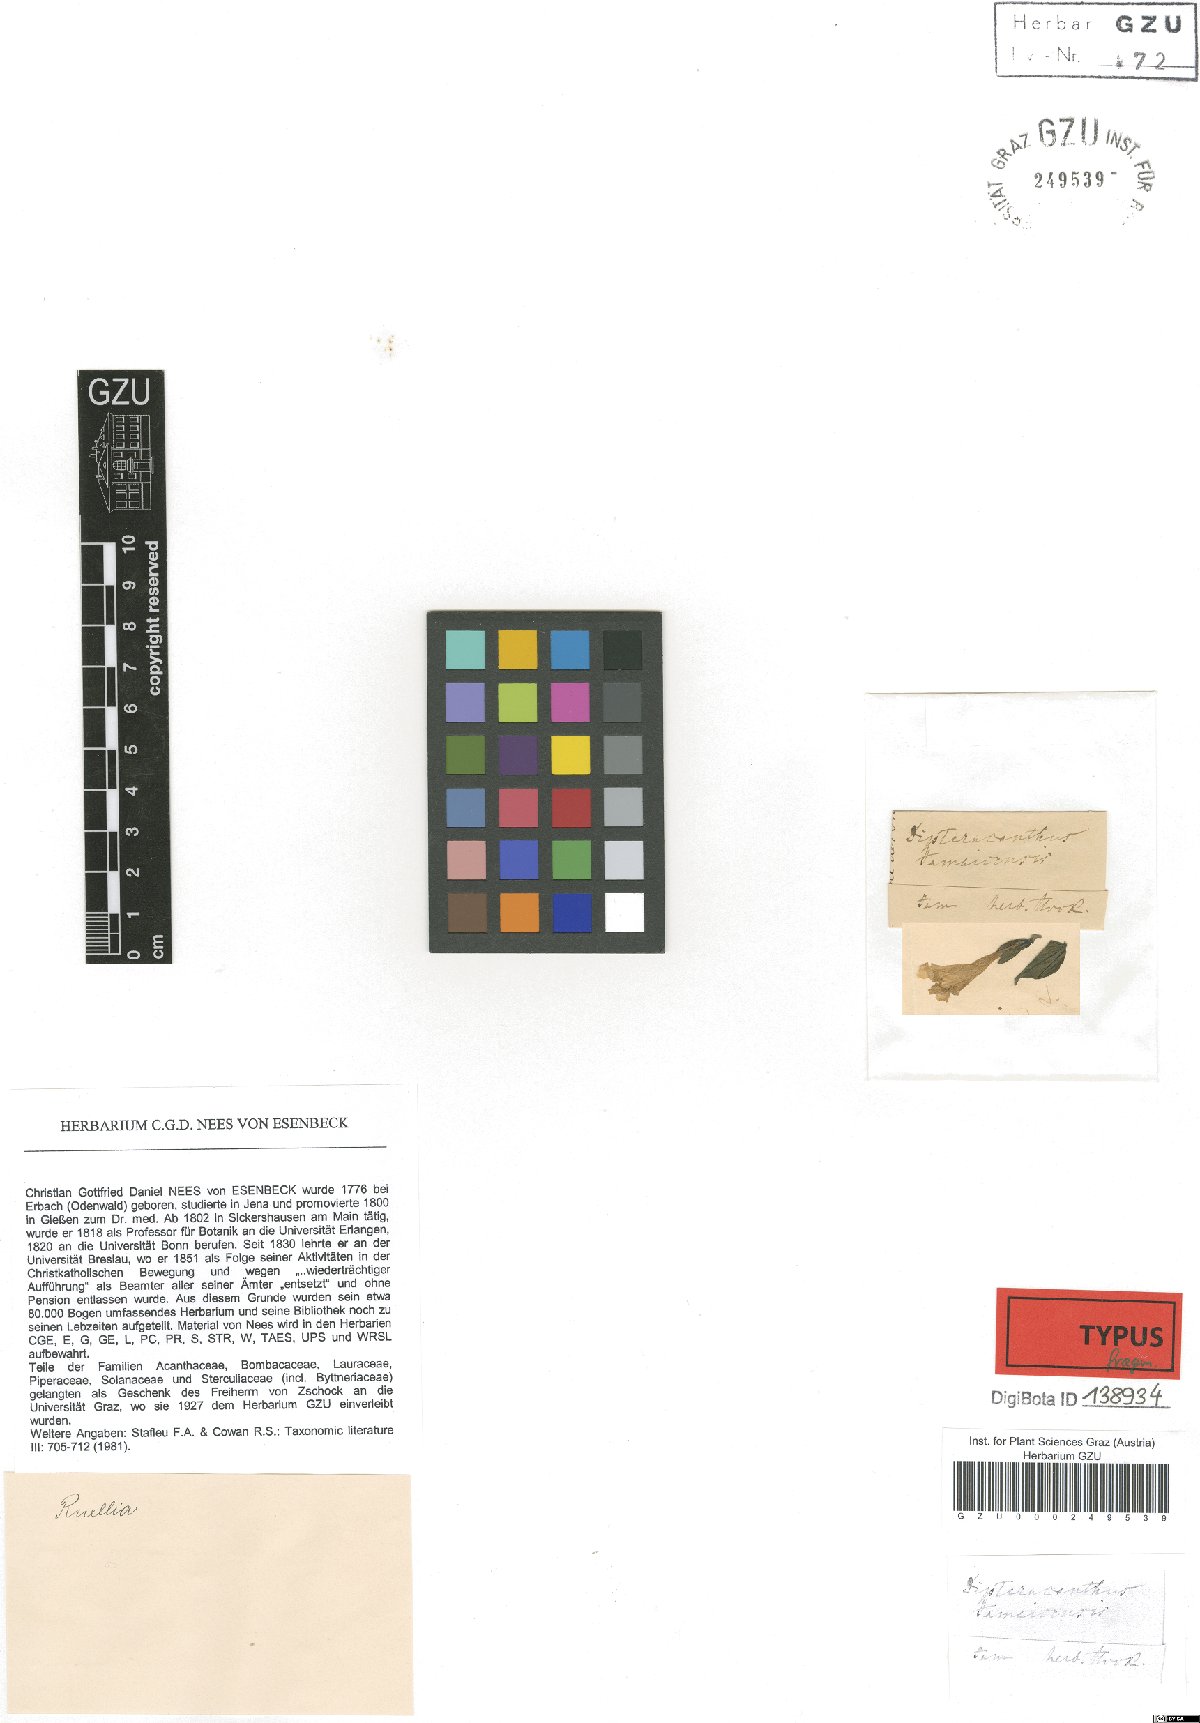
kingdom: Plantae
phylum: Tracheophyta
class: Magnoliopsida
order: Lamiales
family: Acanthaceae
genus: Ruellia
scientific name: Ruellia blechioides
